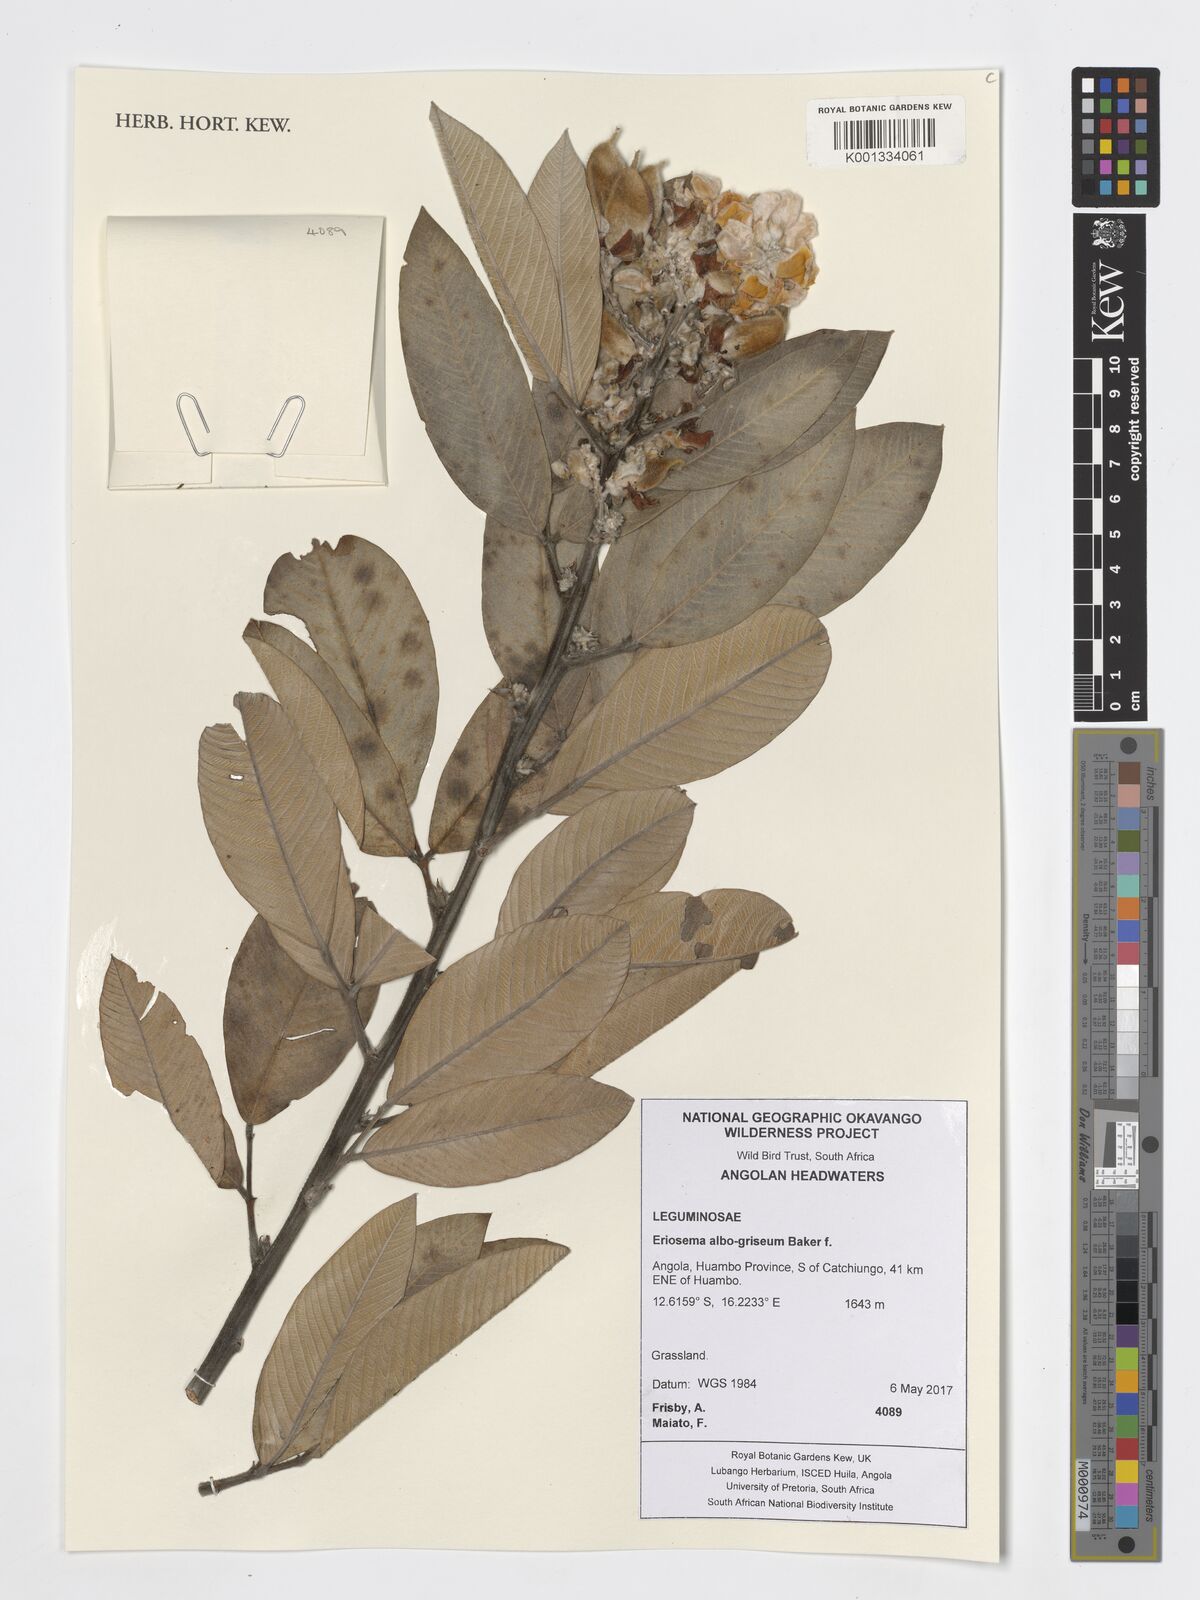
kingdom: Plantae
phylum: Tracheophyta
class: Magnoliopsida
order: Fabales
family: Fabaceae
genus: Eriosema
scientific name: Eriosema albogriseum
